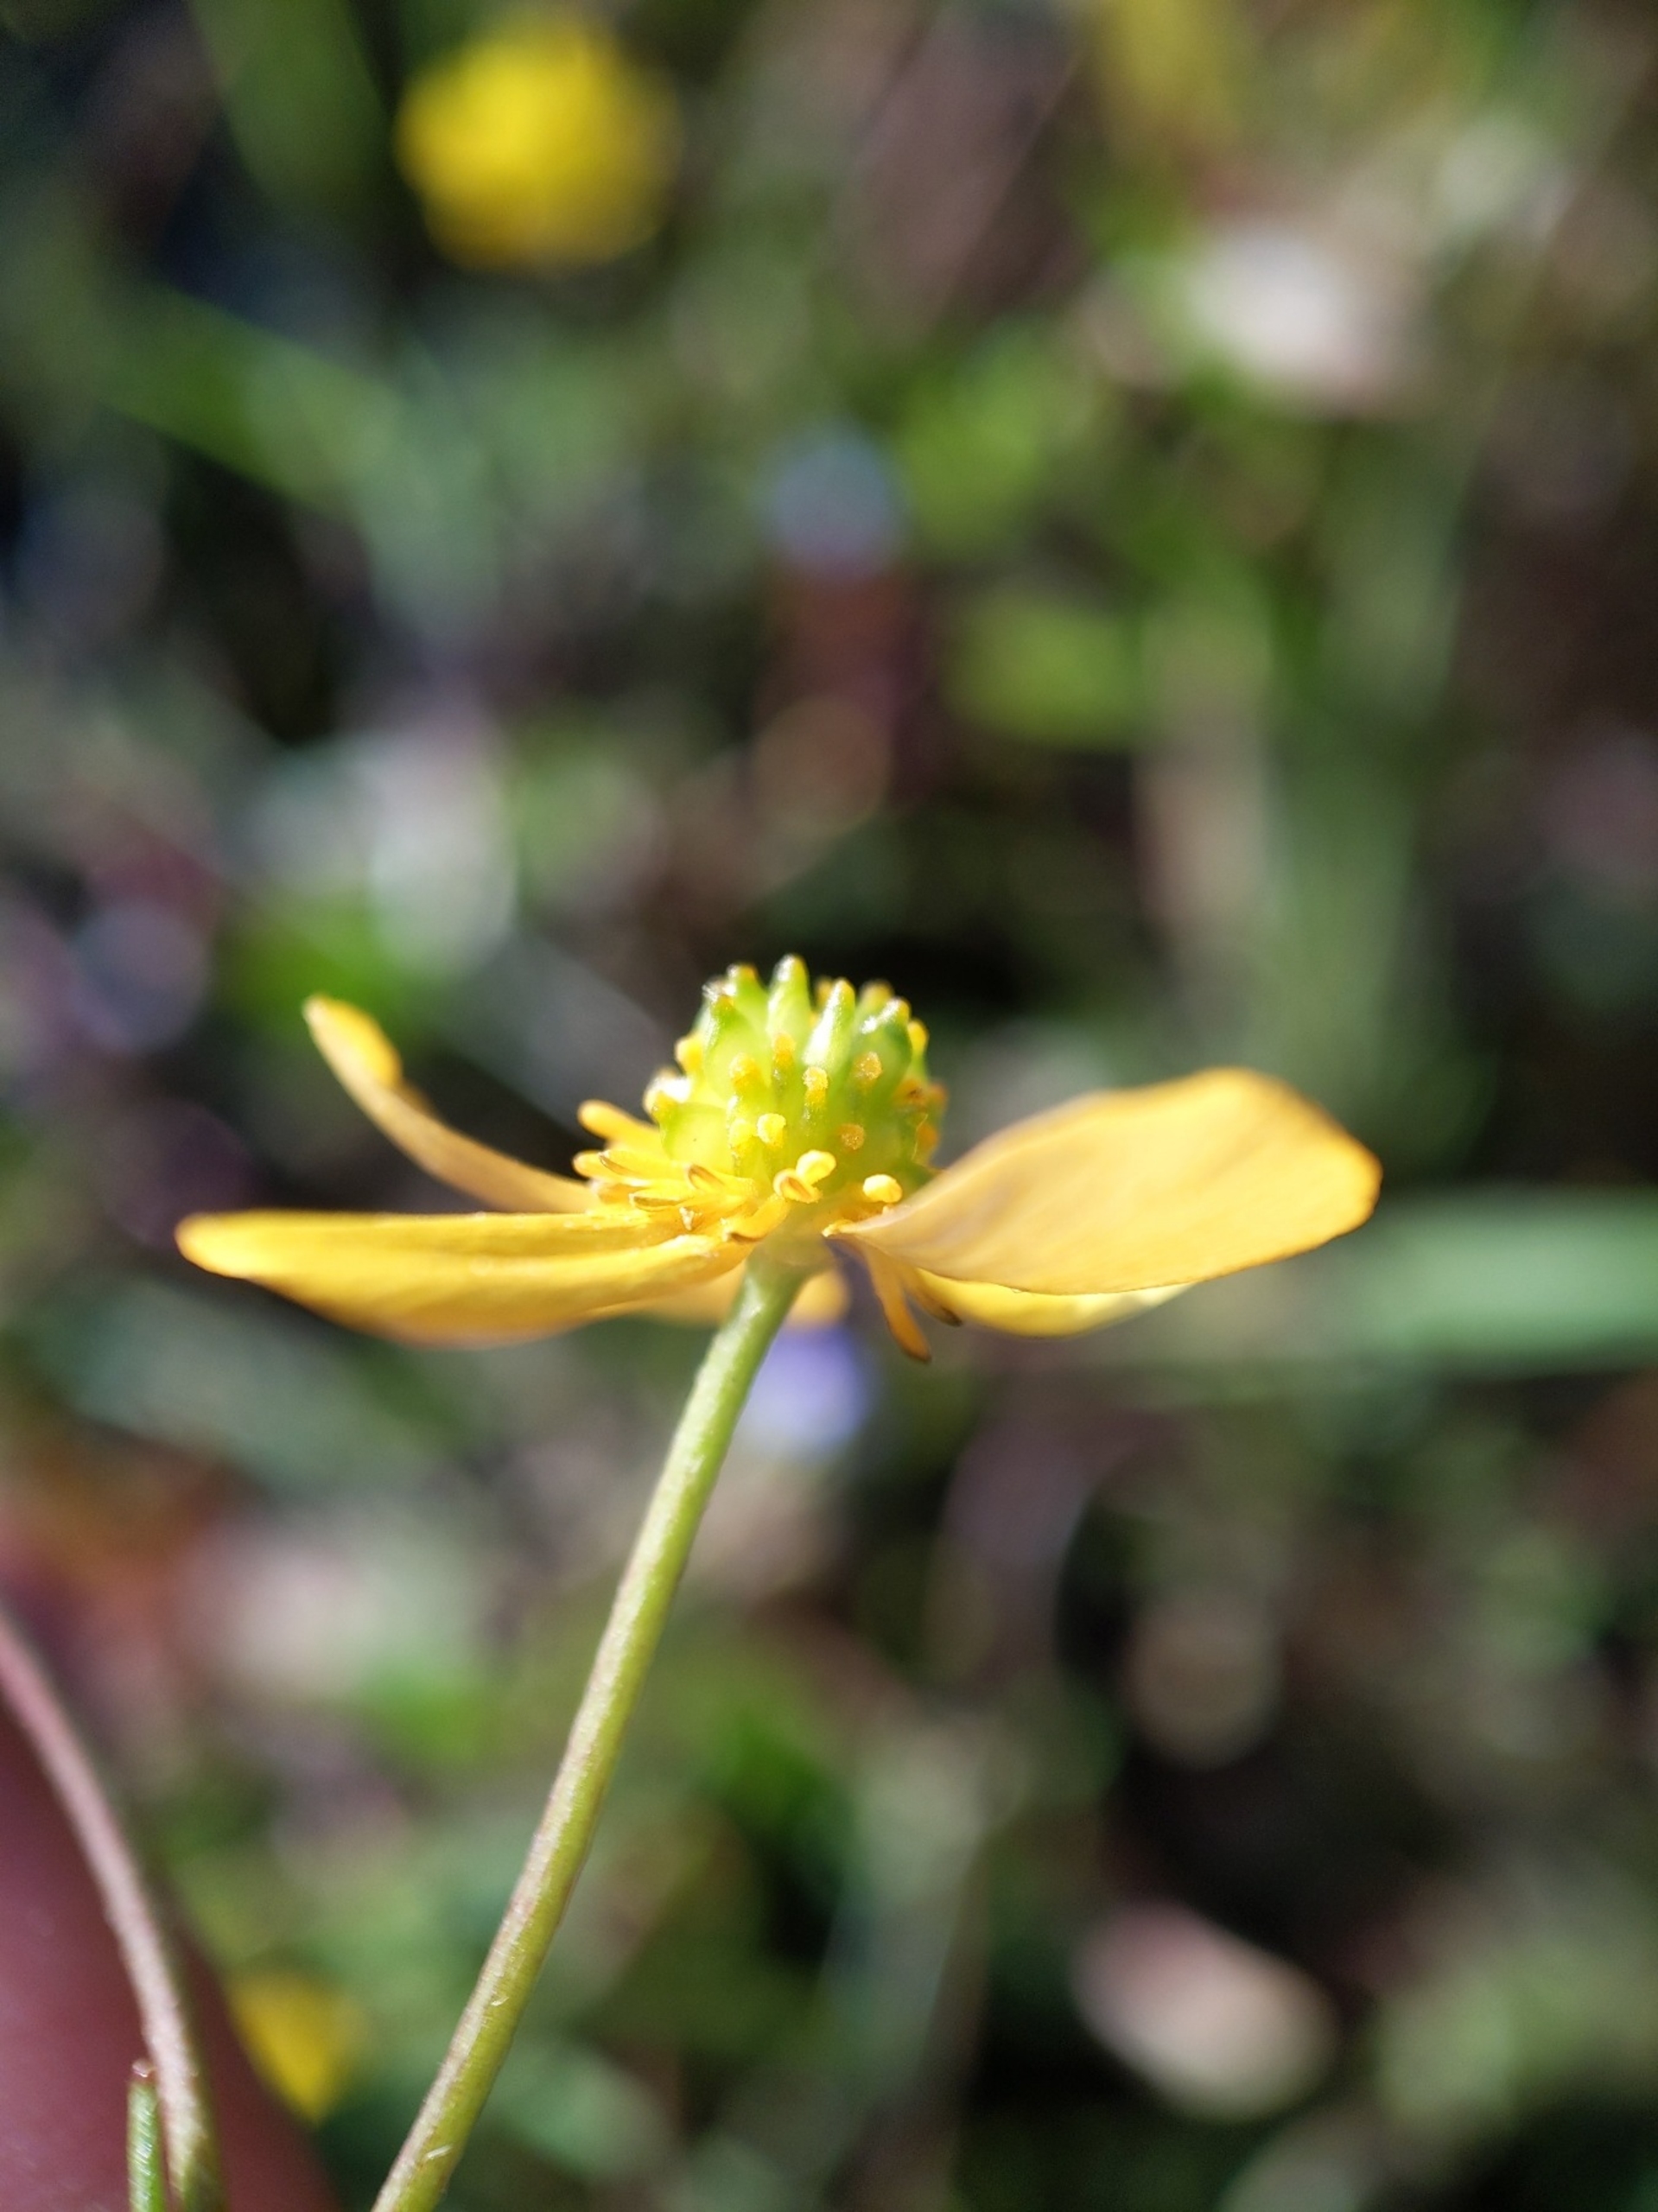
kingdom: Plantae
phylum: Tracheophyta
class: Magnoliopsida
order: Ranunculales
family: Ranunculaceae
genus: Ranunculus
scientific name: Ranunculus flammula
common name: Kær-ranunkel
